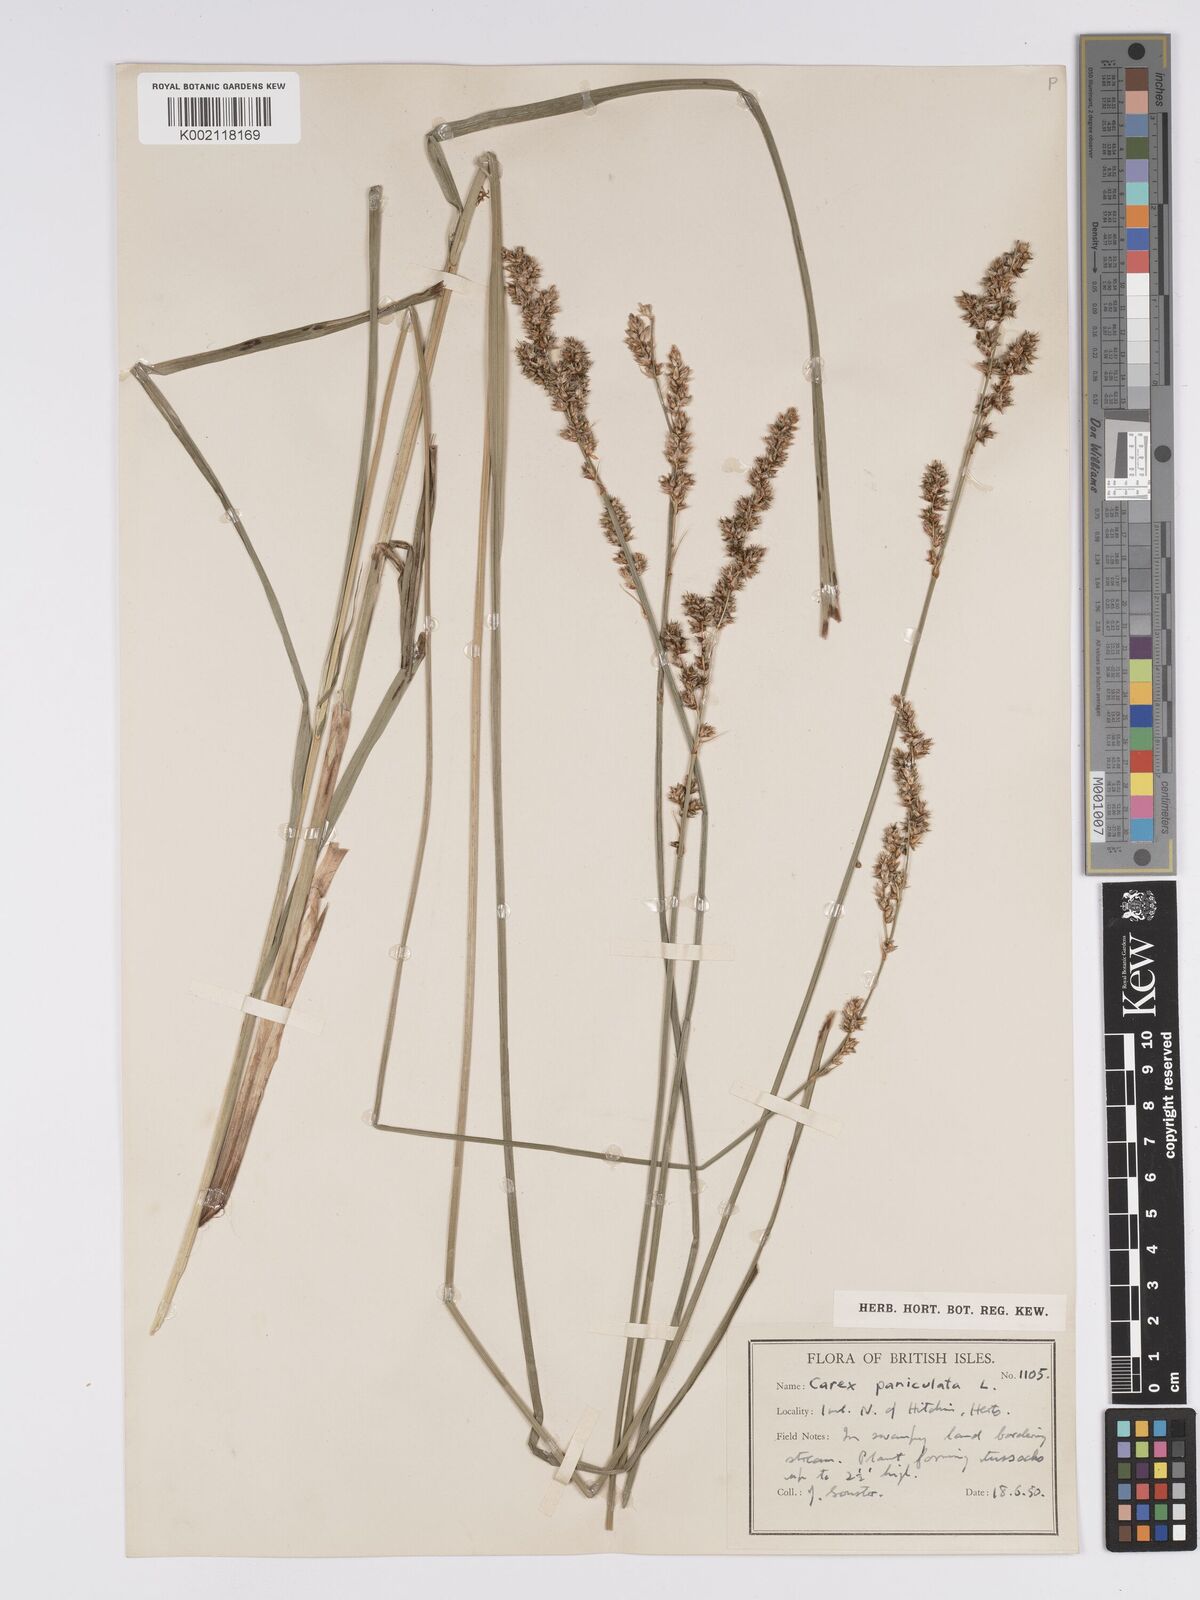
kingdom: Plantae
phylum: Tracheophyta
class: Liliopsida
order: Poales
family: Cyperaceae
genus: Carex
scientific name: Carex paniculata
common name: Greater tussock-sedge
